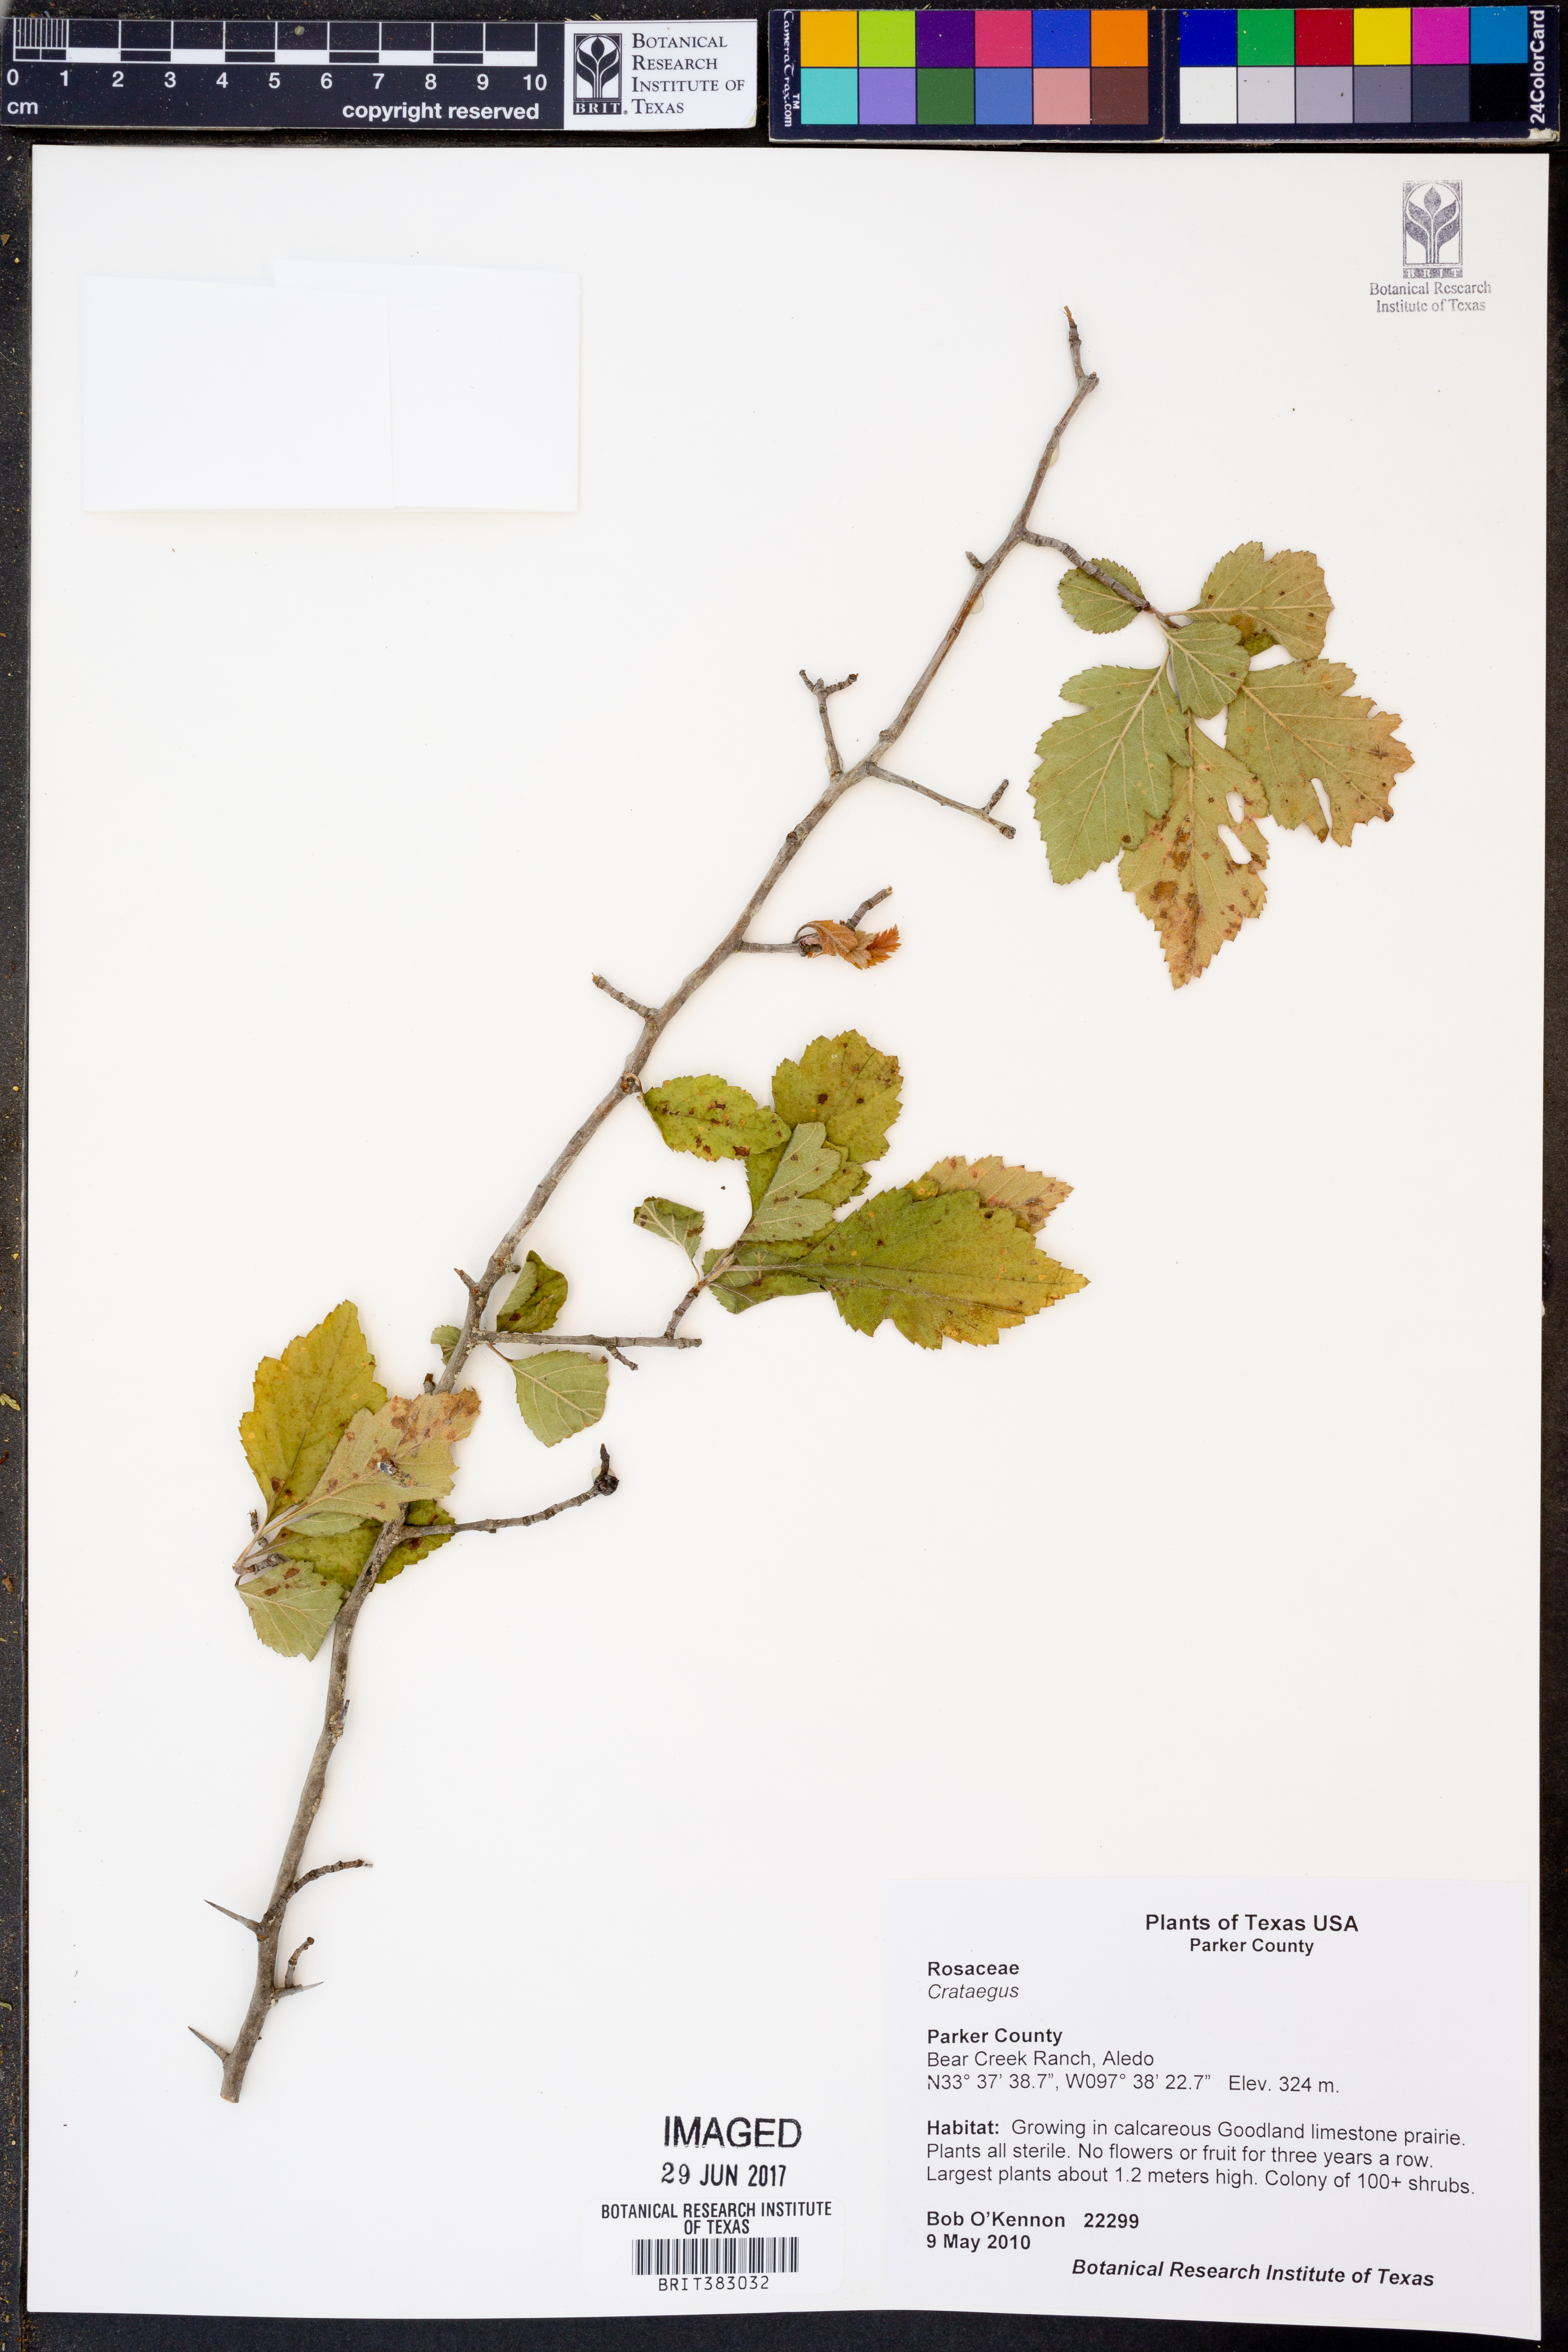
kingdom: Plantae
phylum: Tracheophyta
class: Magnoliopsida
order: Rosales
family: Rosaceae
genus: Crataegus
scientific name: Crataegus
